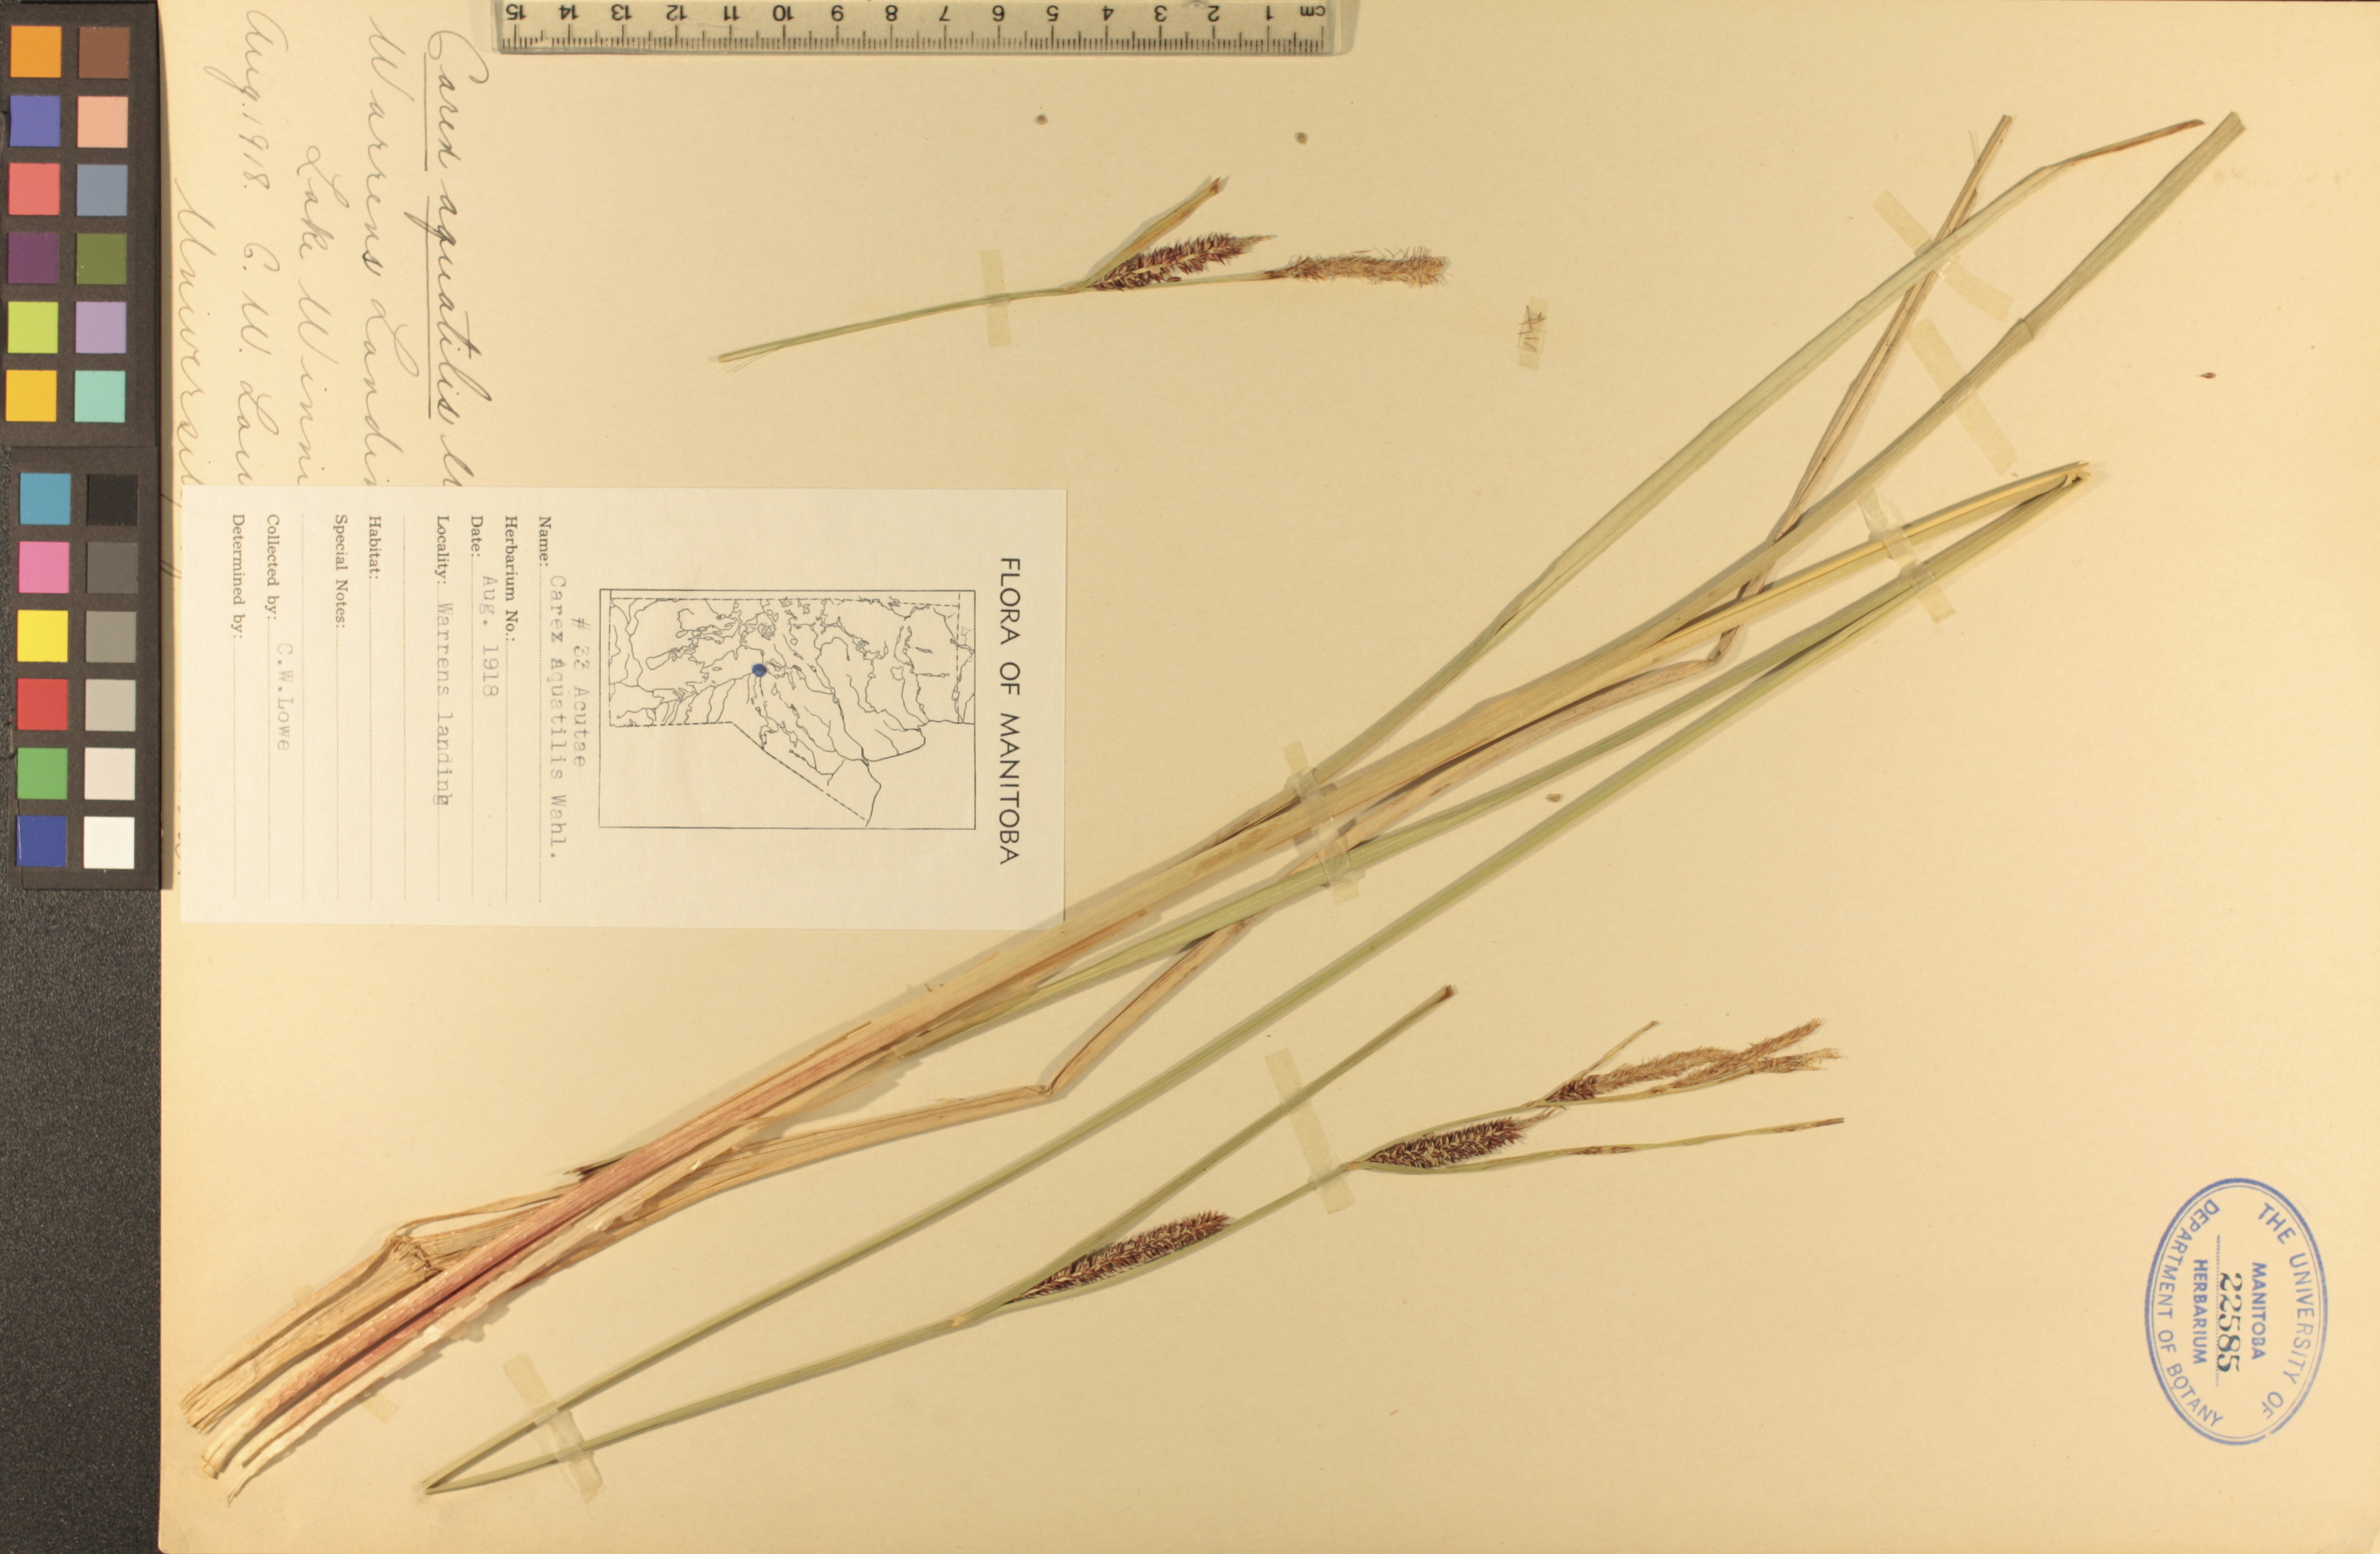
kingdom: Plantae
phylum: Tracheophyta
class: Liliopsida
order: Poales
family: Cyperaceae
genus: Carex
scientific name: Carex aquatilis
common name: Water sedge
